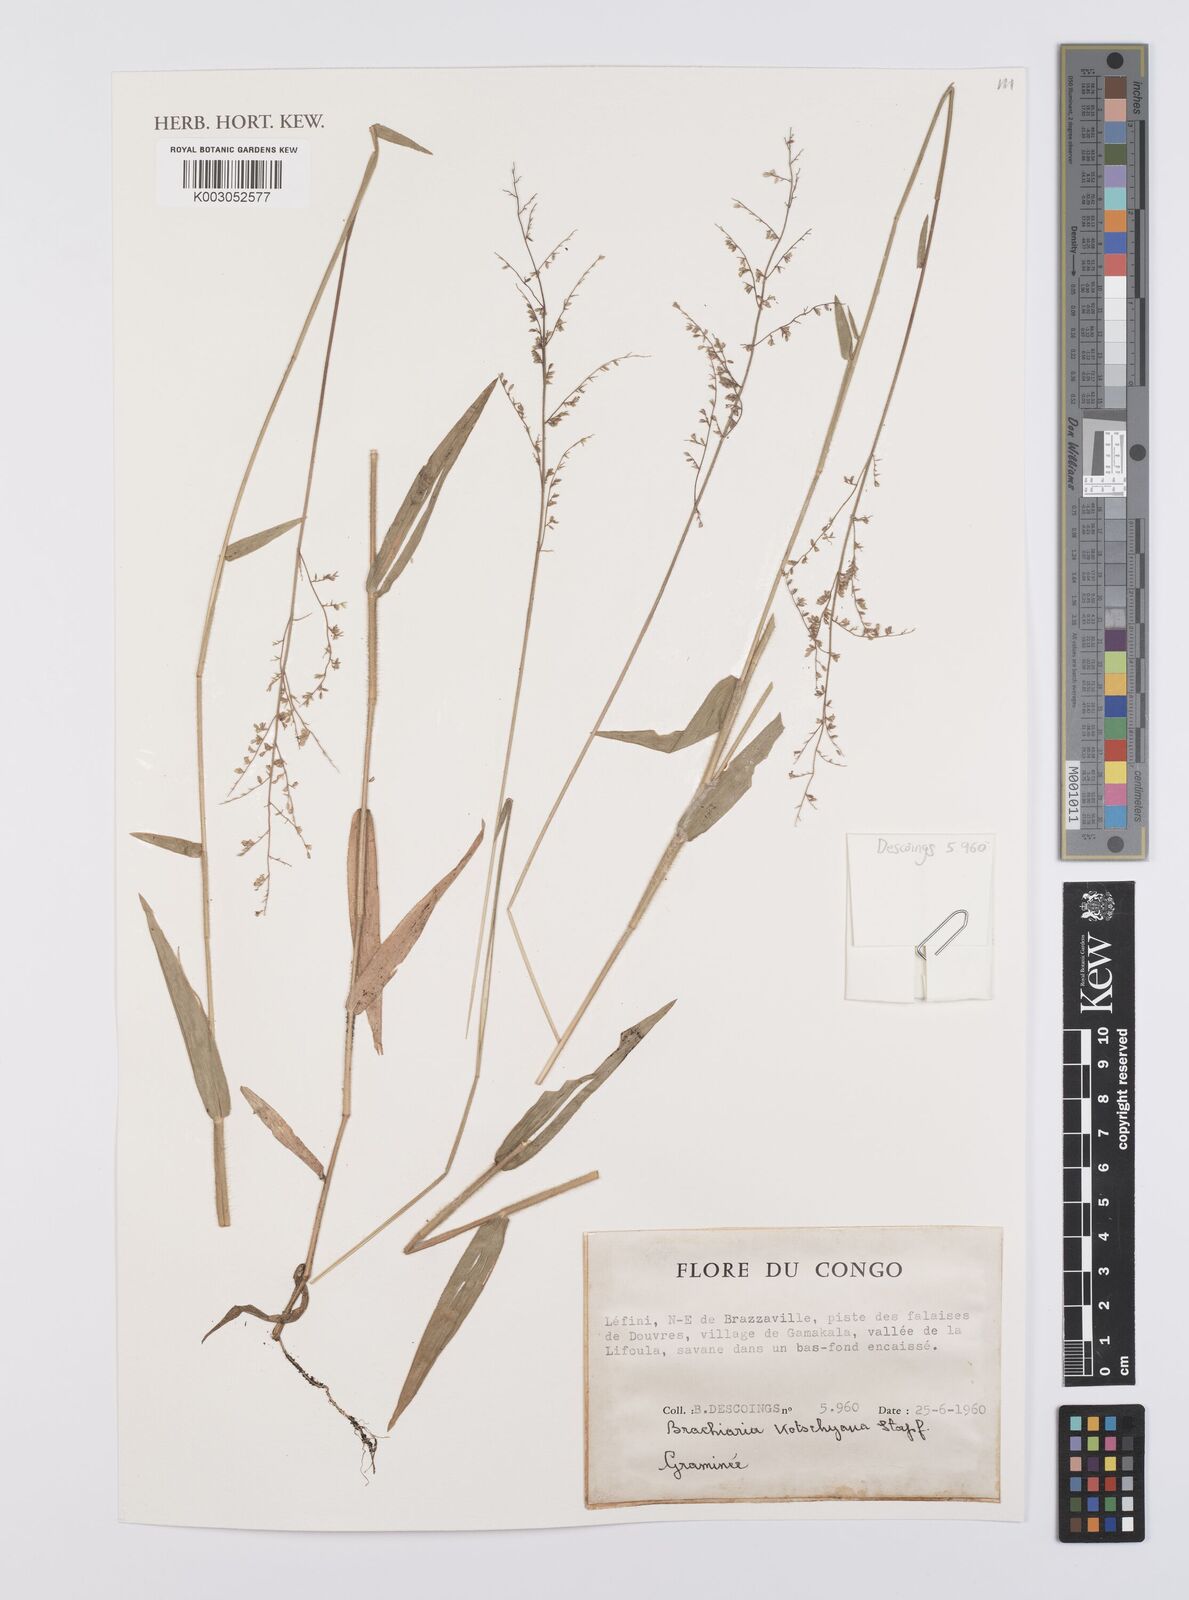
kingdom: Plantae
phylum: Tracheophyta
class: Liliopsida
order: Poales
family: Poaceae
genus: Urochloa
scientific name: Urochloa comata
